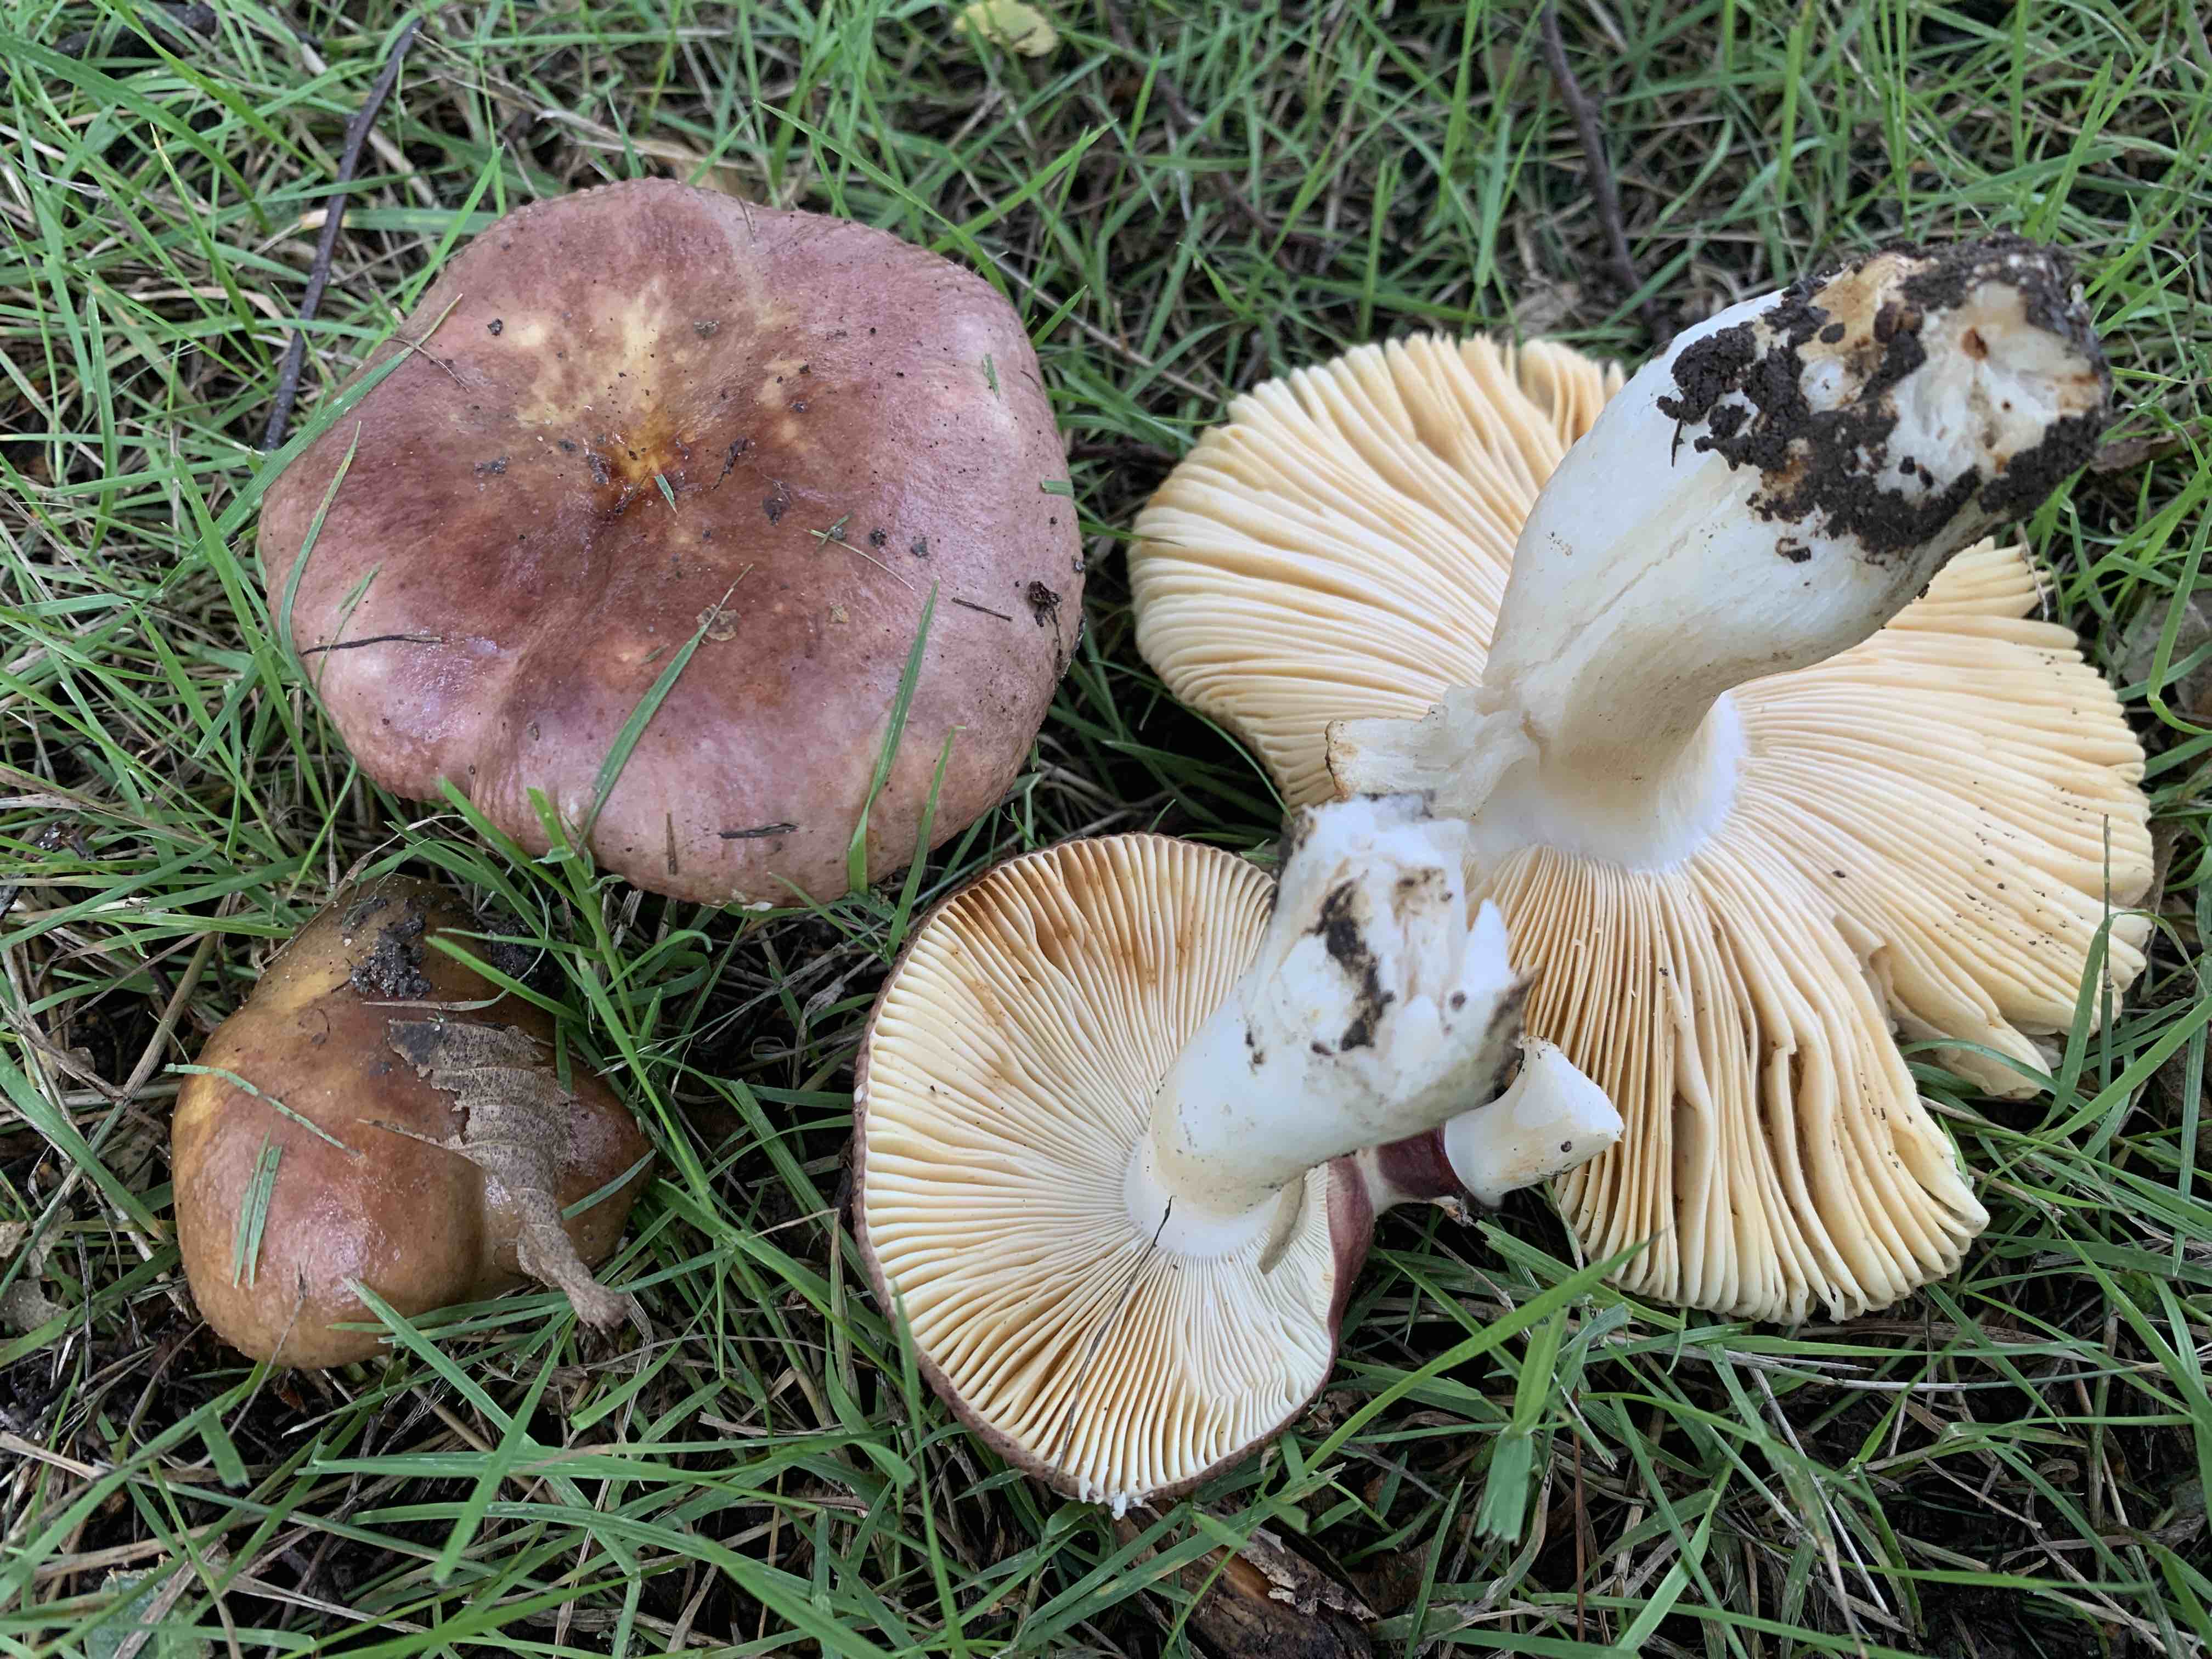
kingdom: Fungi
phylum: Basidiomycota
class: Agaricomycetes
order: Russulales
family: Russulaceae
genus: Russula
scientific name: Russula carpini
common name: avnbøg-skørhat
